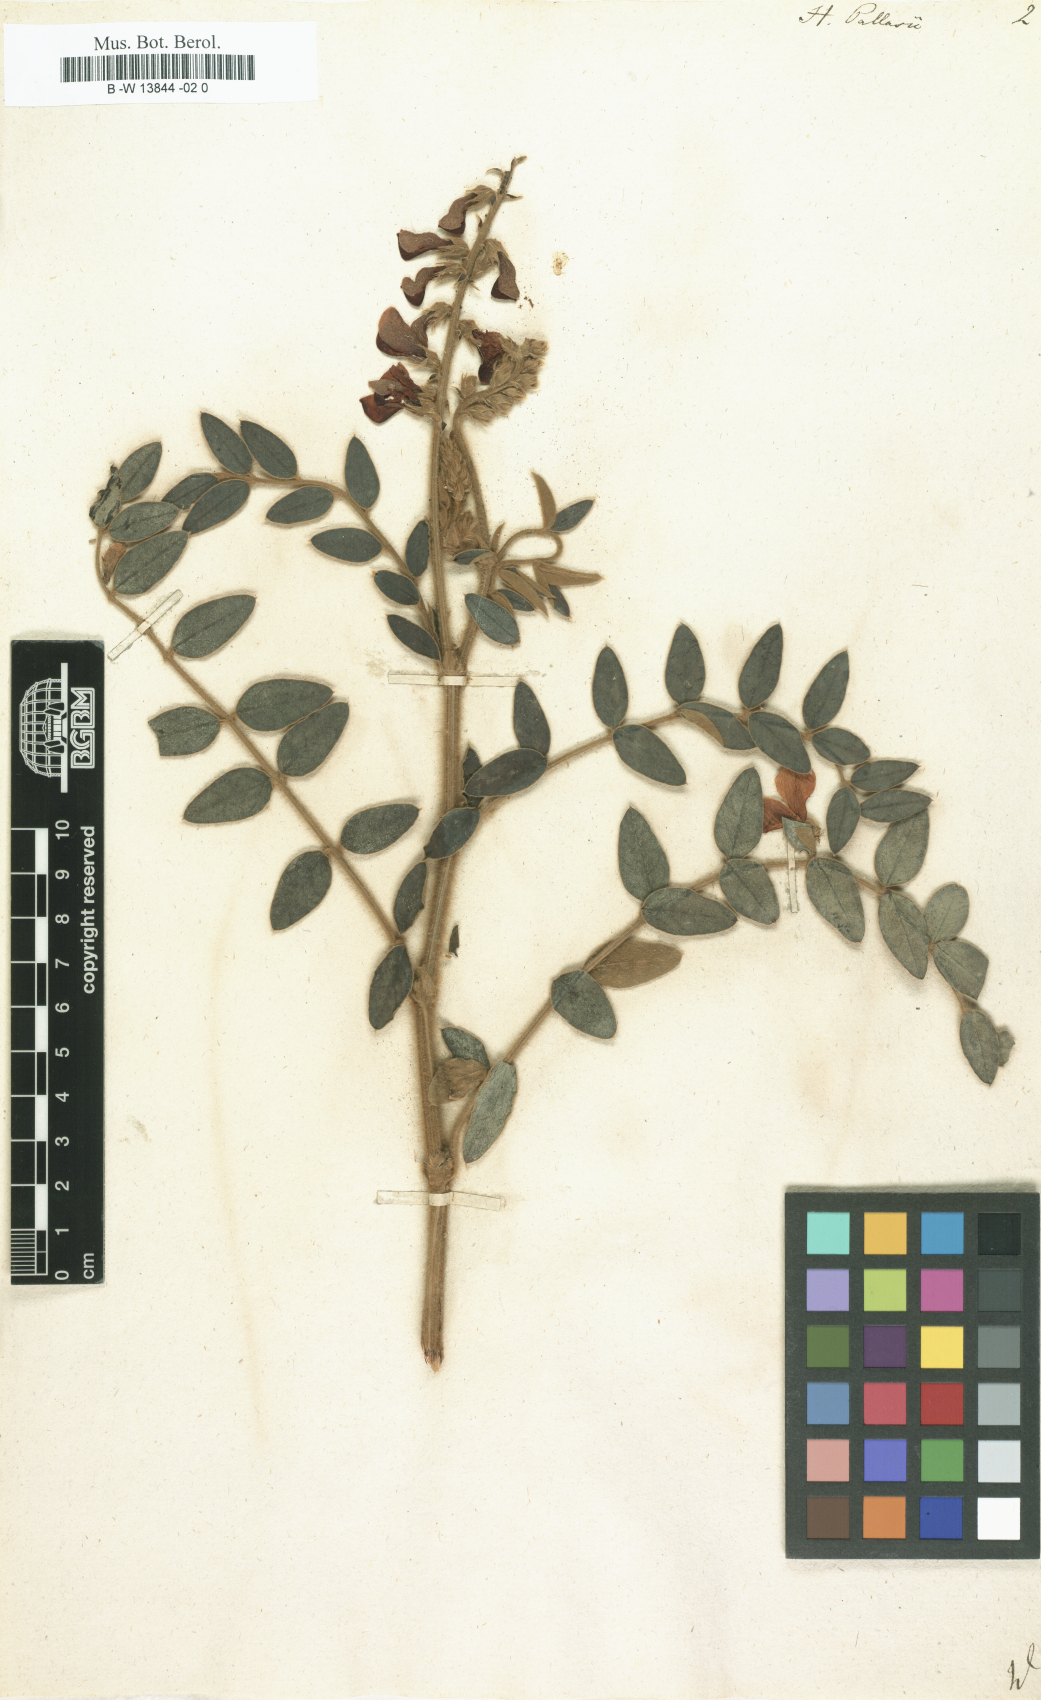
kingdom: Plantae
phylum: Tracheophyta
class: Magnoliopsida
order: Fabales
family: Fabaceae
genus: Onobrychis
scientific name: Onobrychis pallasii
